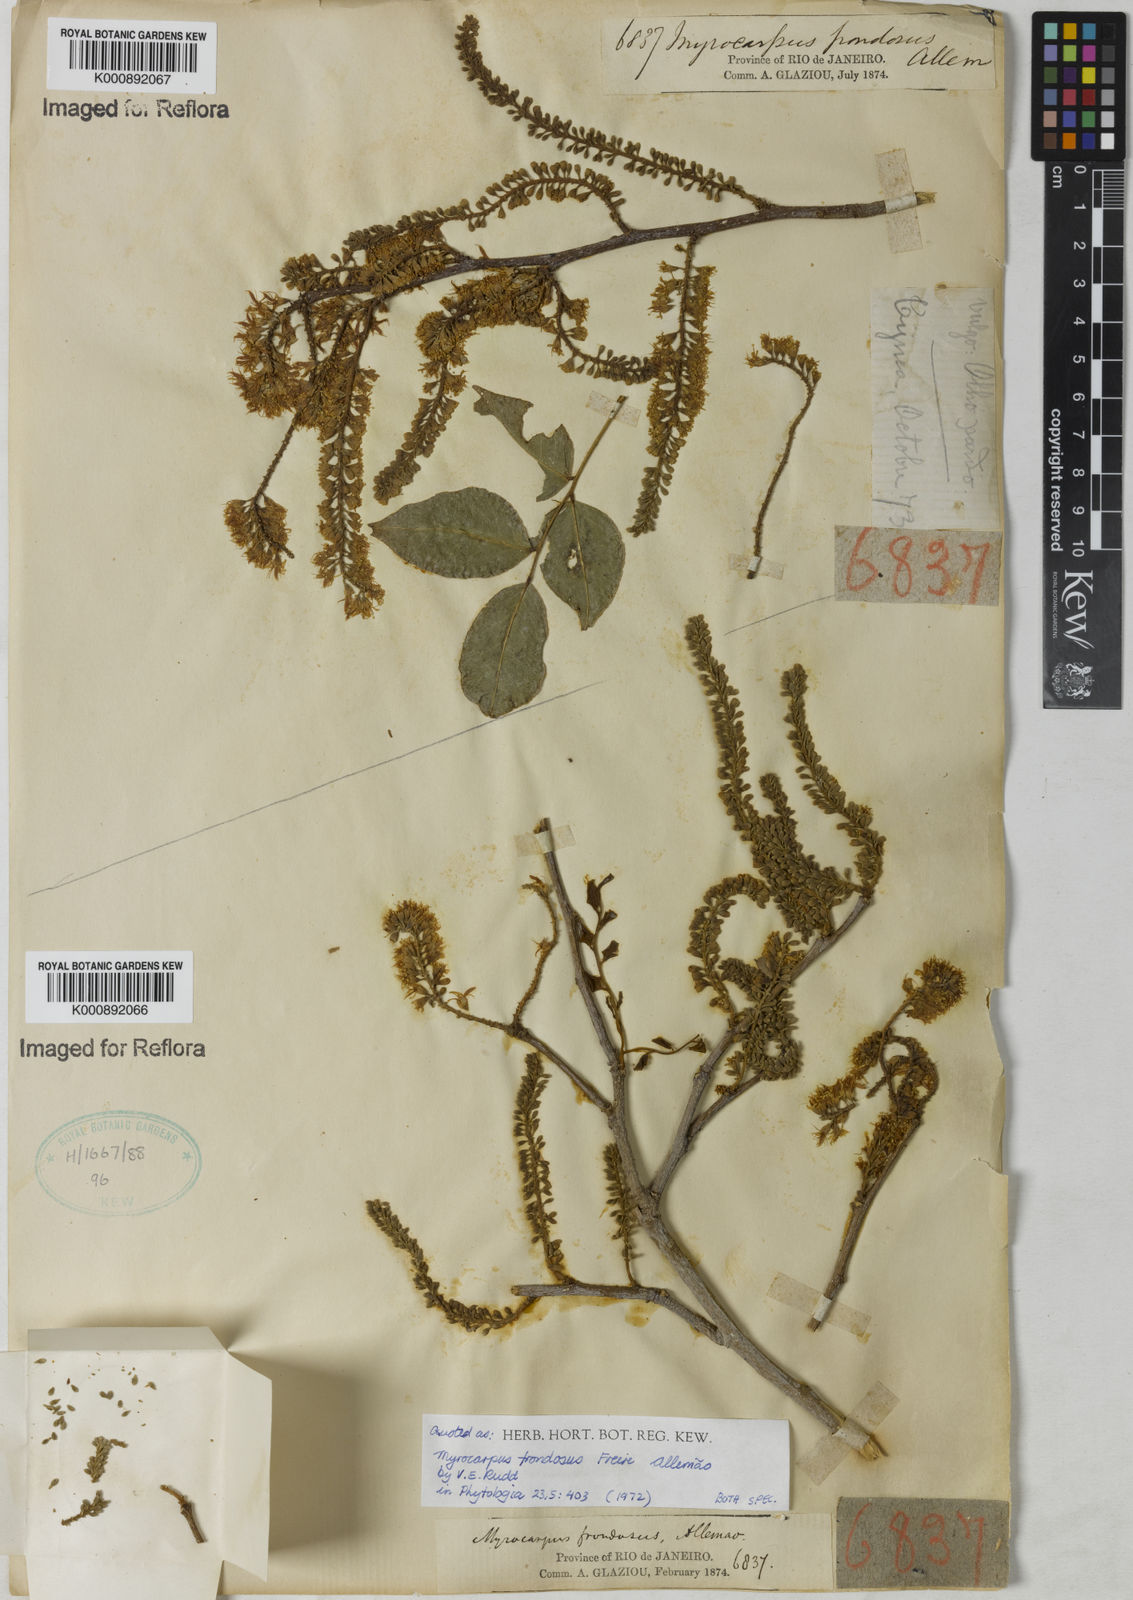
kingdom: Plantae
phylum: Tracheophyta
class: Magnoliopsida
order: Fabales
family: Fabaceae
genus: Myrocarpus
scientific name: Myrocarpus
